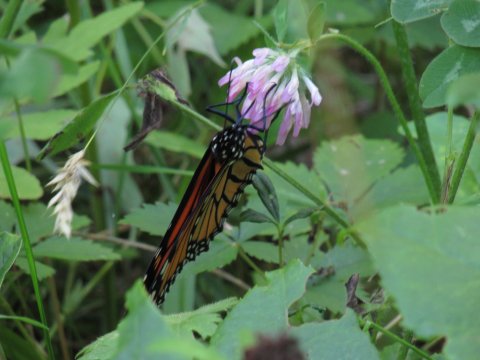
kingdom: Animalia
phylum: Arthropoda
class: Insecta
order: Lepidoptera
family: Nymphalidae
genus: Danaus
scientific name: Danaus plexippus
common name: Monarch
